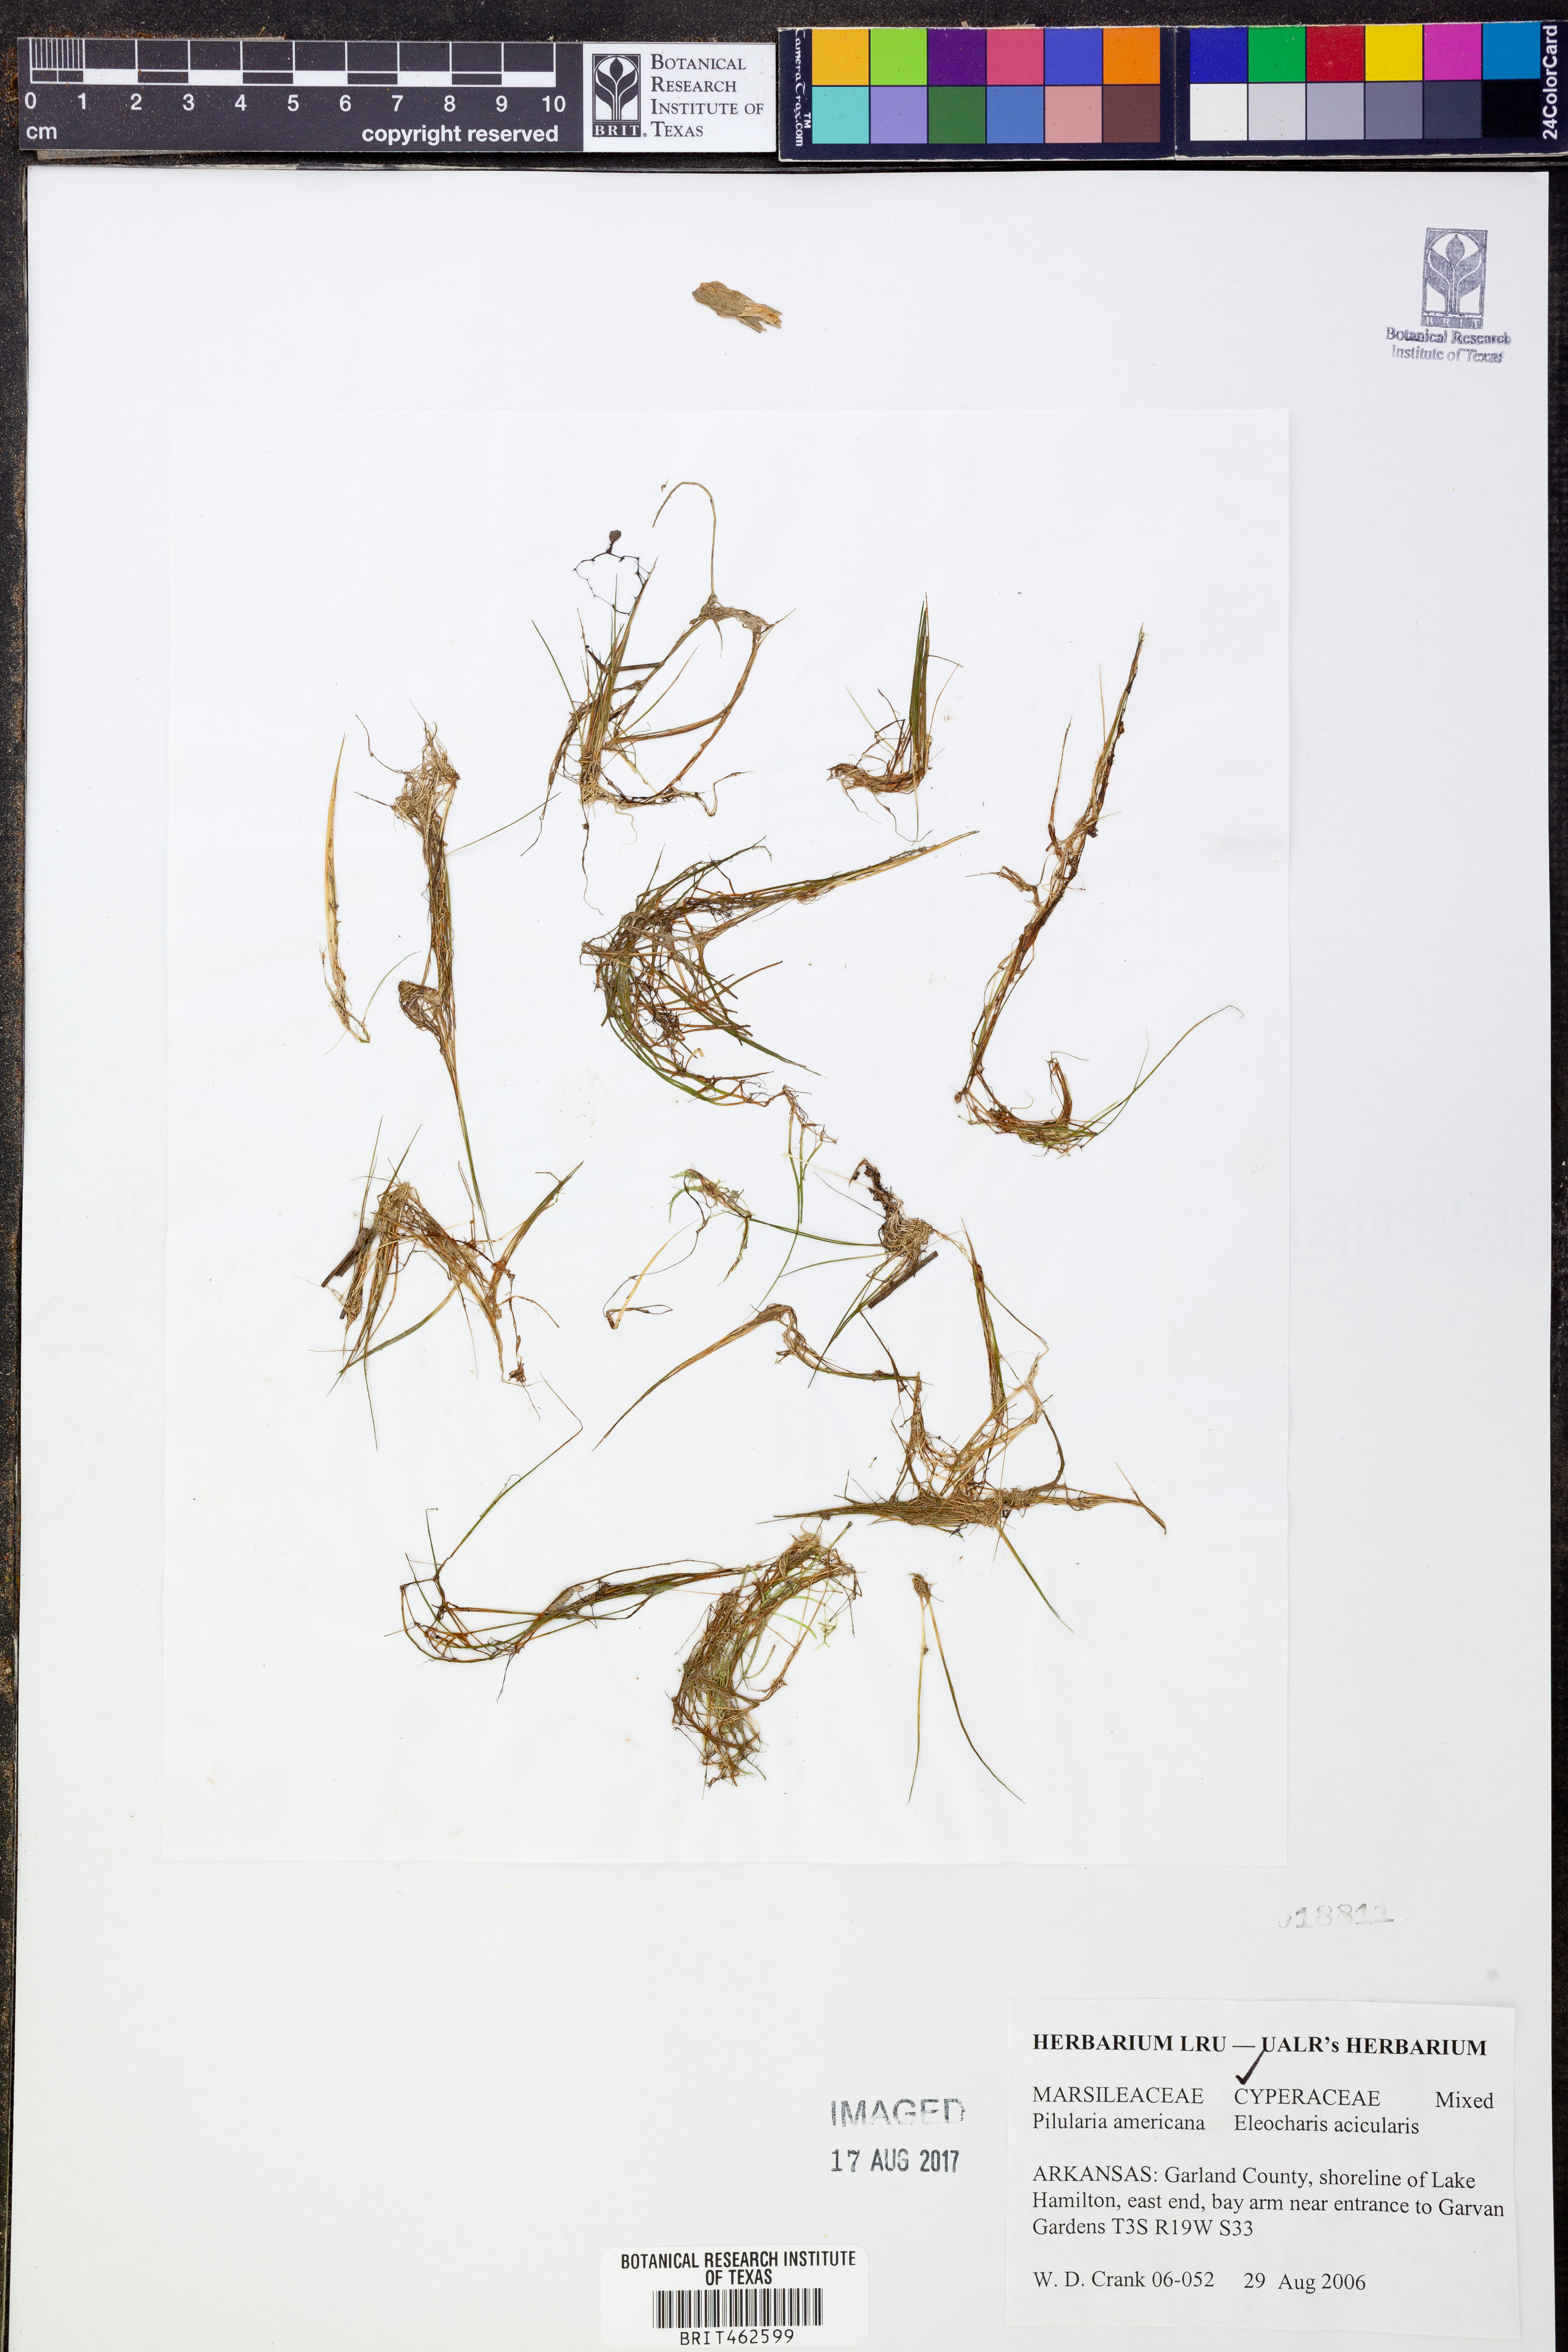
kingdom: Plantae
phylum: Tracheophyta
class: Polypodiopsida
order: Salviniales
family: Marsileaceae
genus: Pilularia
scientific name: Pilularia americana
